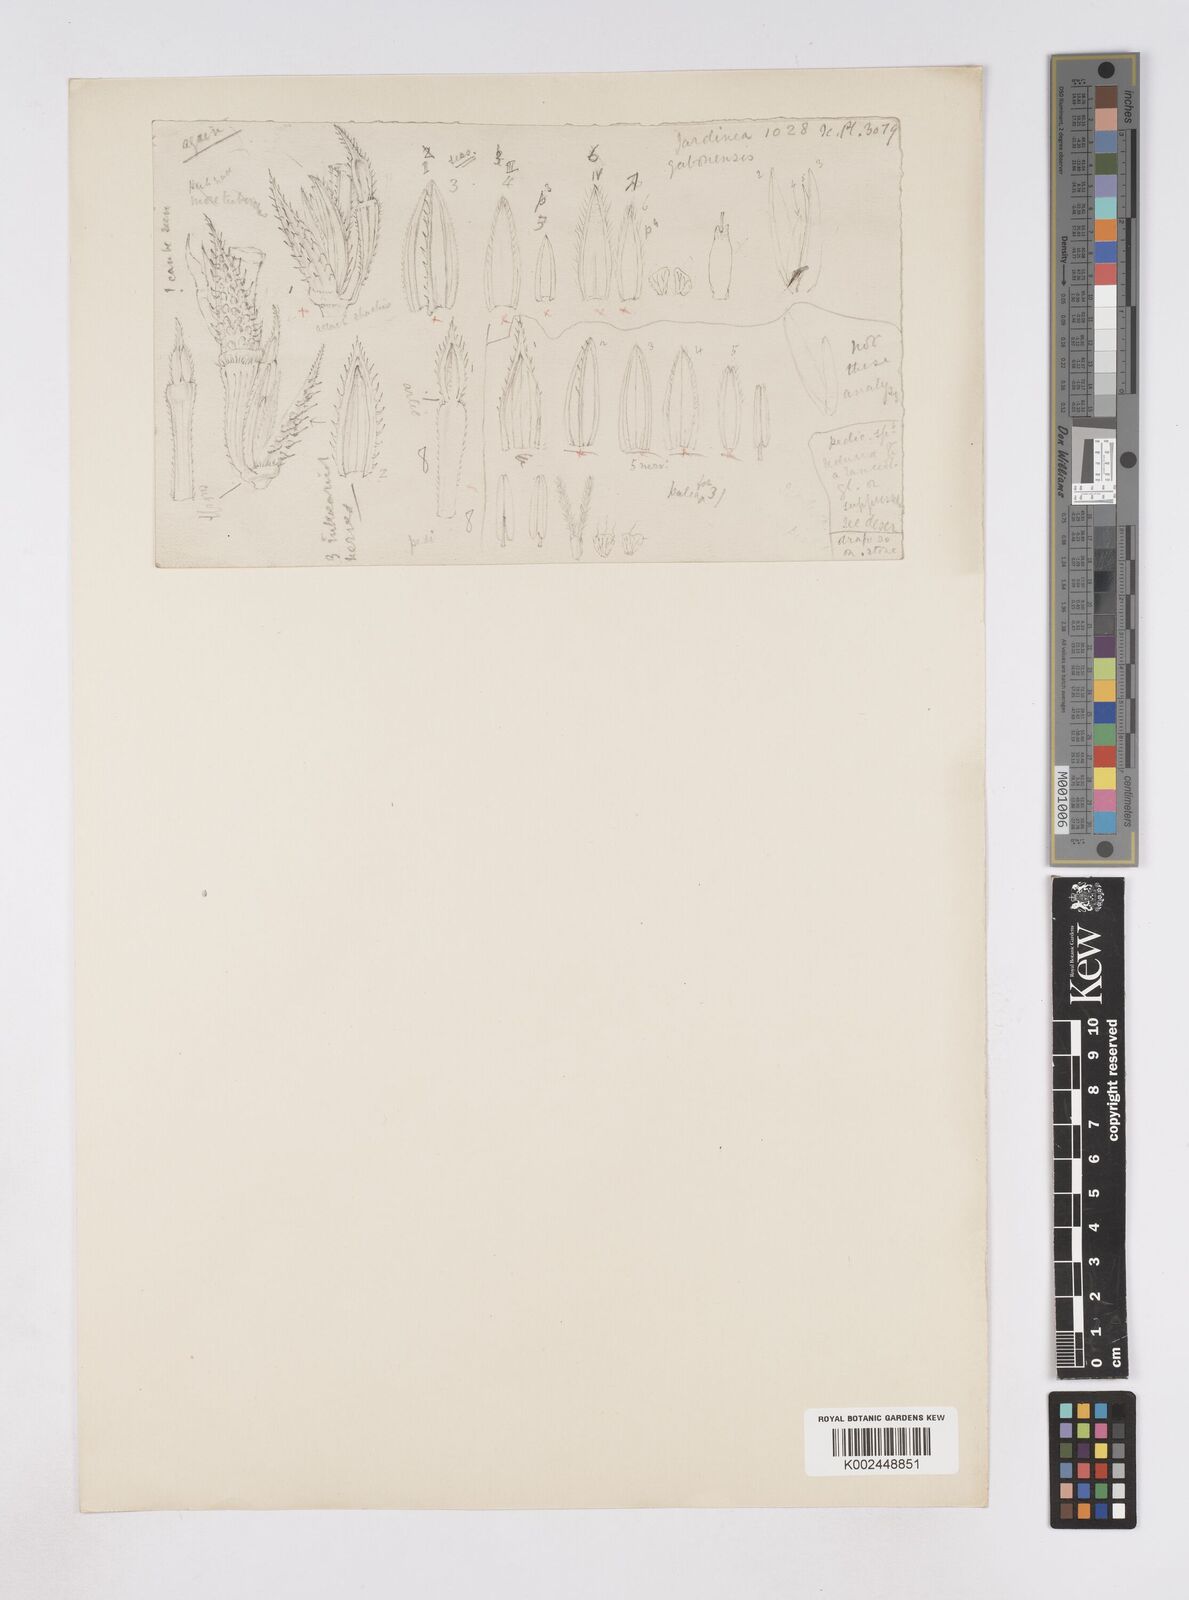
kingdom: Plantae
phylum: Tracheophyta
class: Liliopsida
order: Poales
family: Poaceae
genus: Phacelurus
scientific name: Phacelurus gabonensis
